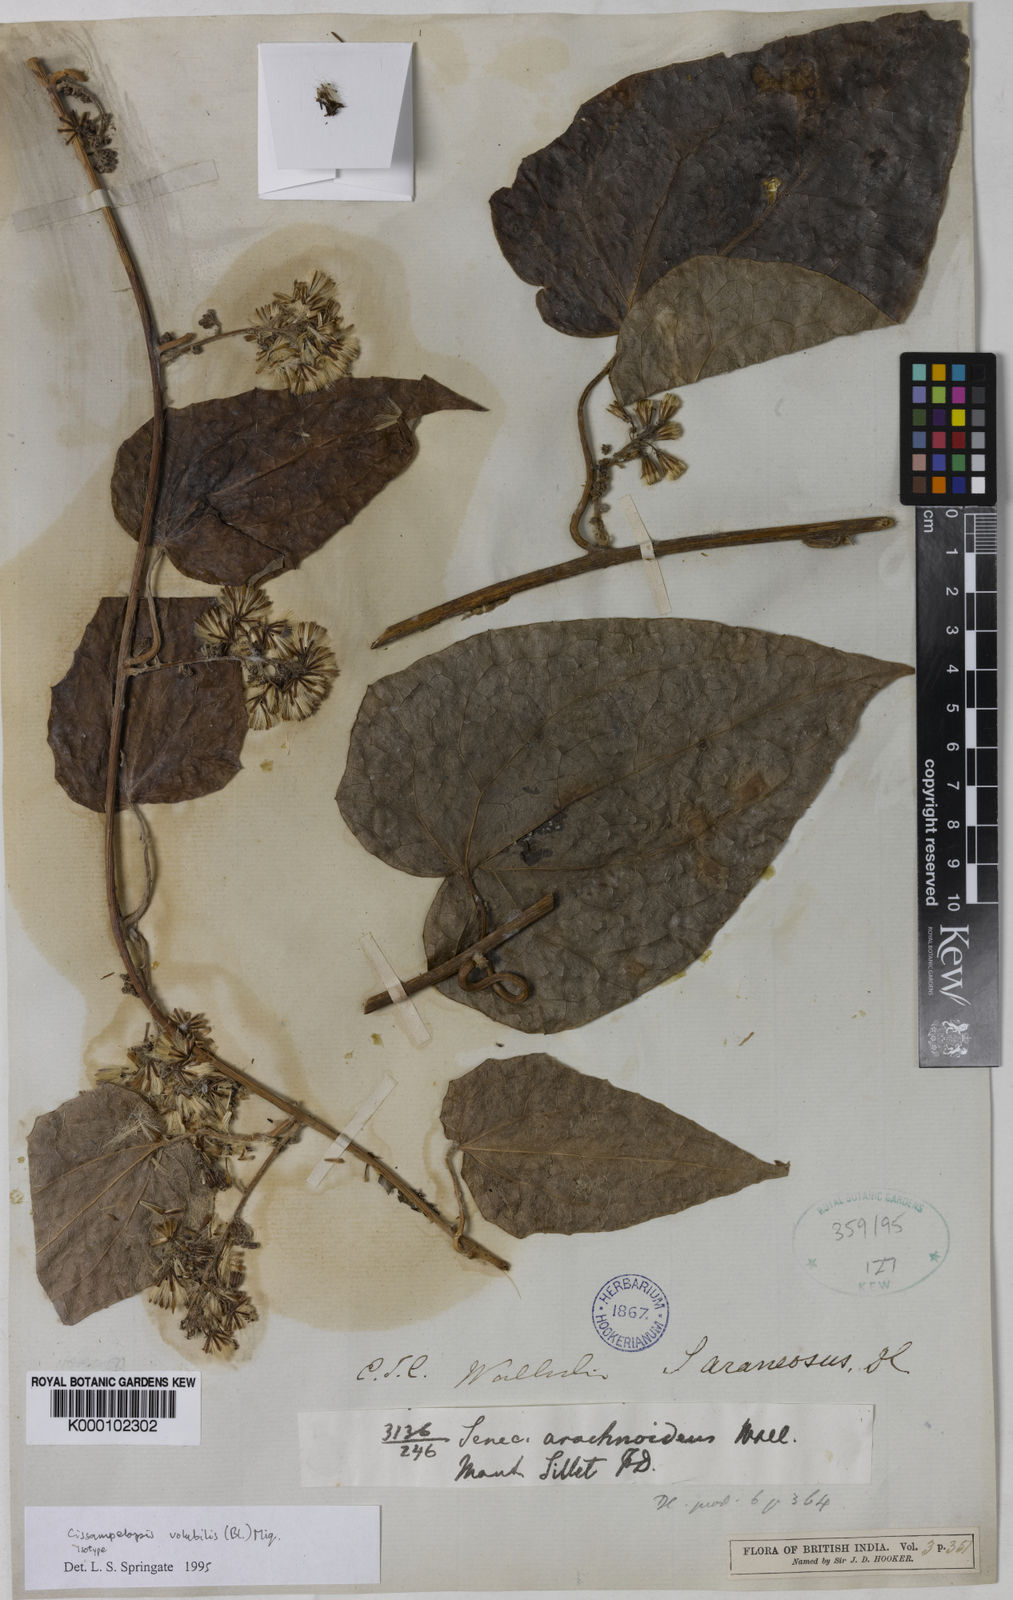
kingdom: Plantae
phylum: Tracheophyta
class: Magnoliopsida
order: Asterales
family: Asteraceae
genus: Cissampelopsis
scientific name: Cissampelopsis
